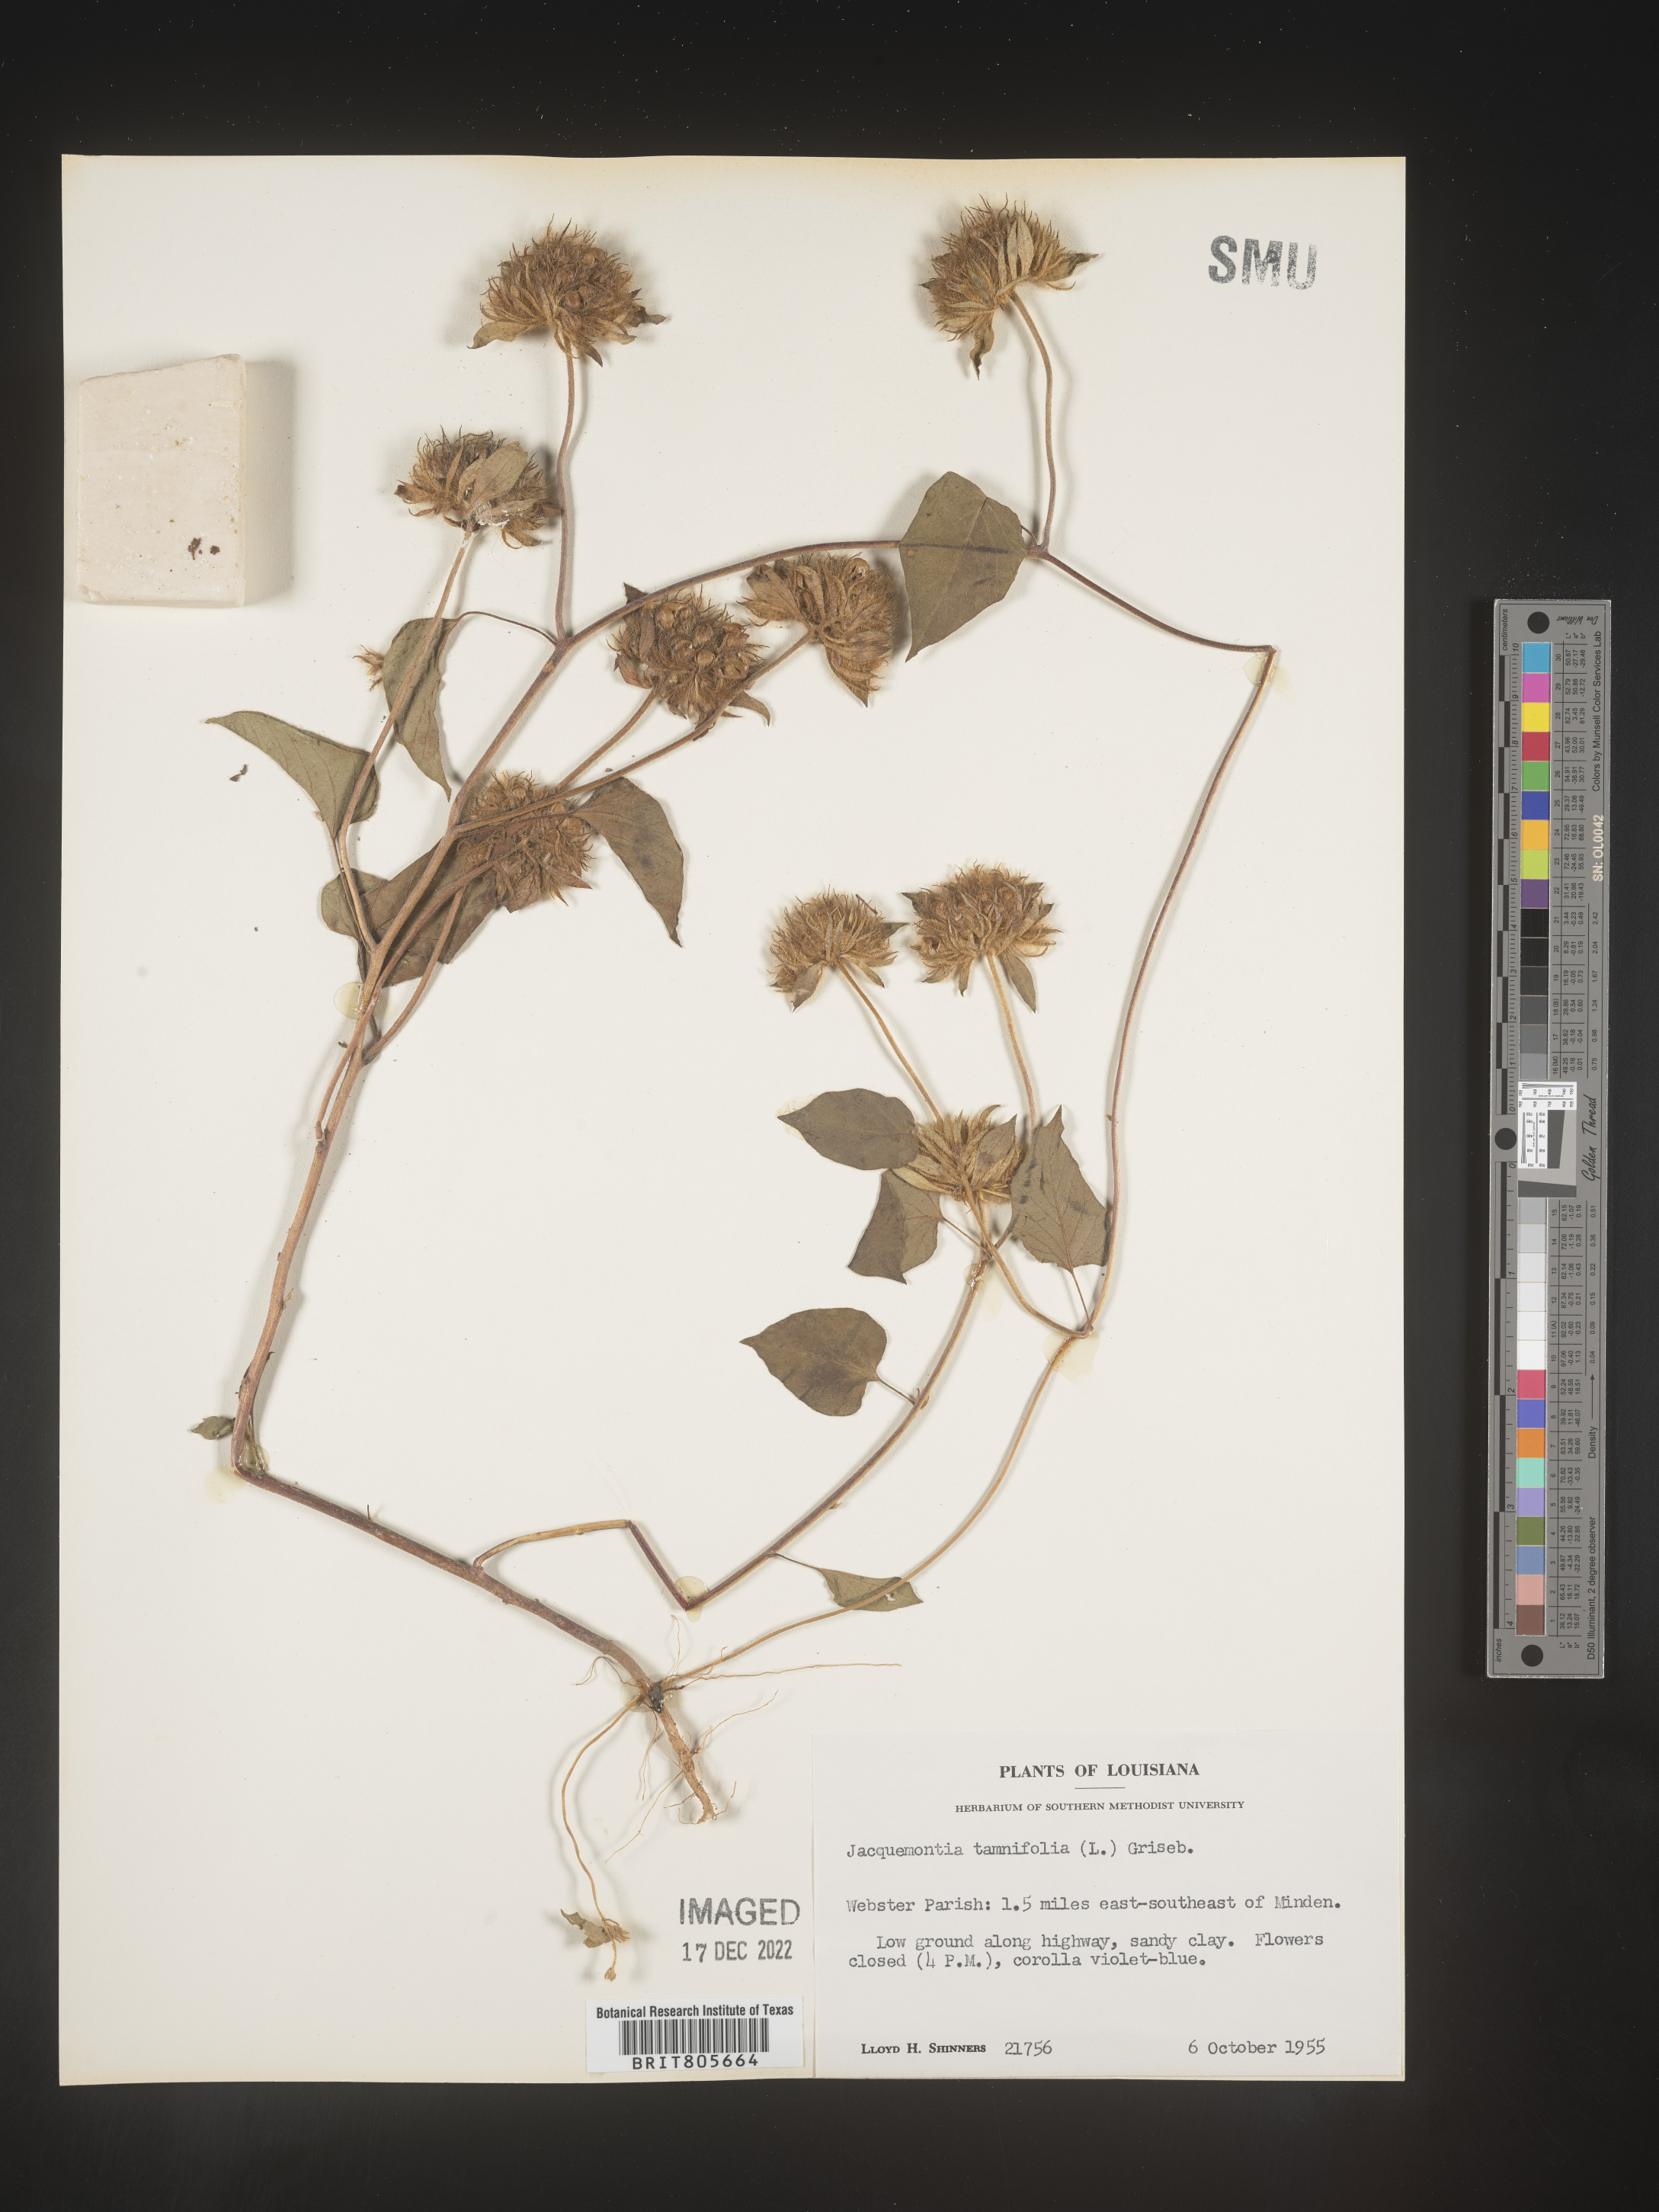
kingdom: Plantae
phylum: Tracheophyta
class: Magnoliopsida
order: Solanales
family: Convolvulaceae
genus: Jacquemontia
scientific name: Jacquemontia tamnifolia
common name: Hairy clustervine
